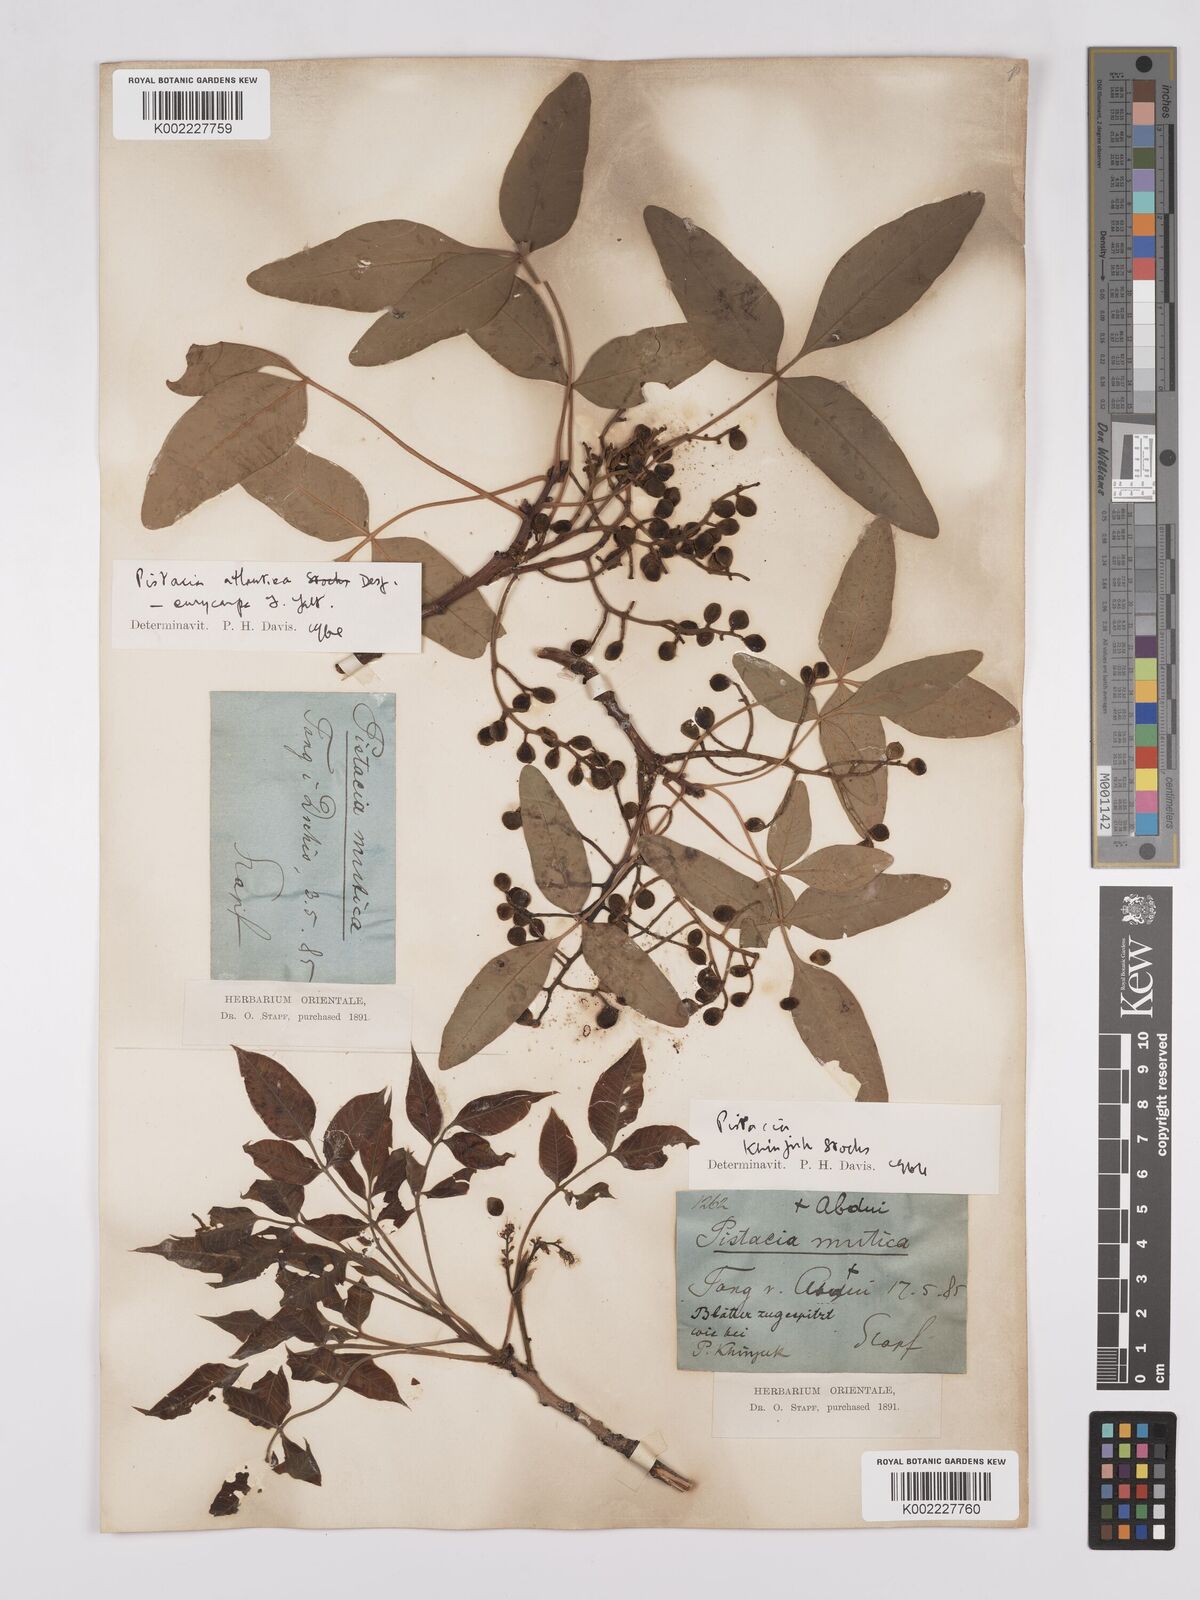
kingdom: Plantae
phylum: Tracheophyta
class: Magnoliopsida
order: Sapindales
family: Anacardiaceae
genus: Pistacia
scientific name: Pistacia
